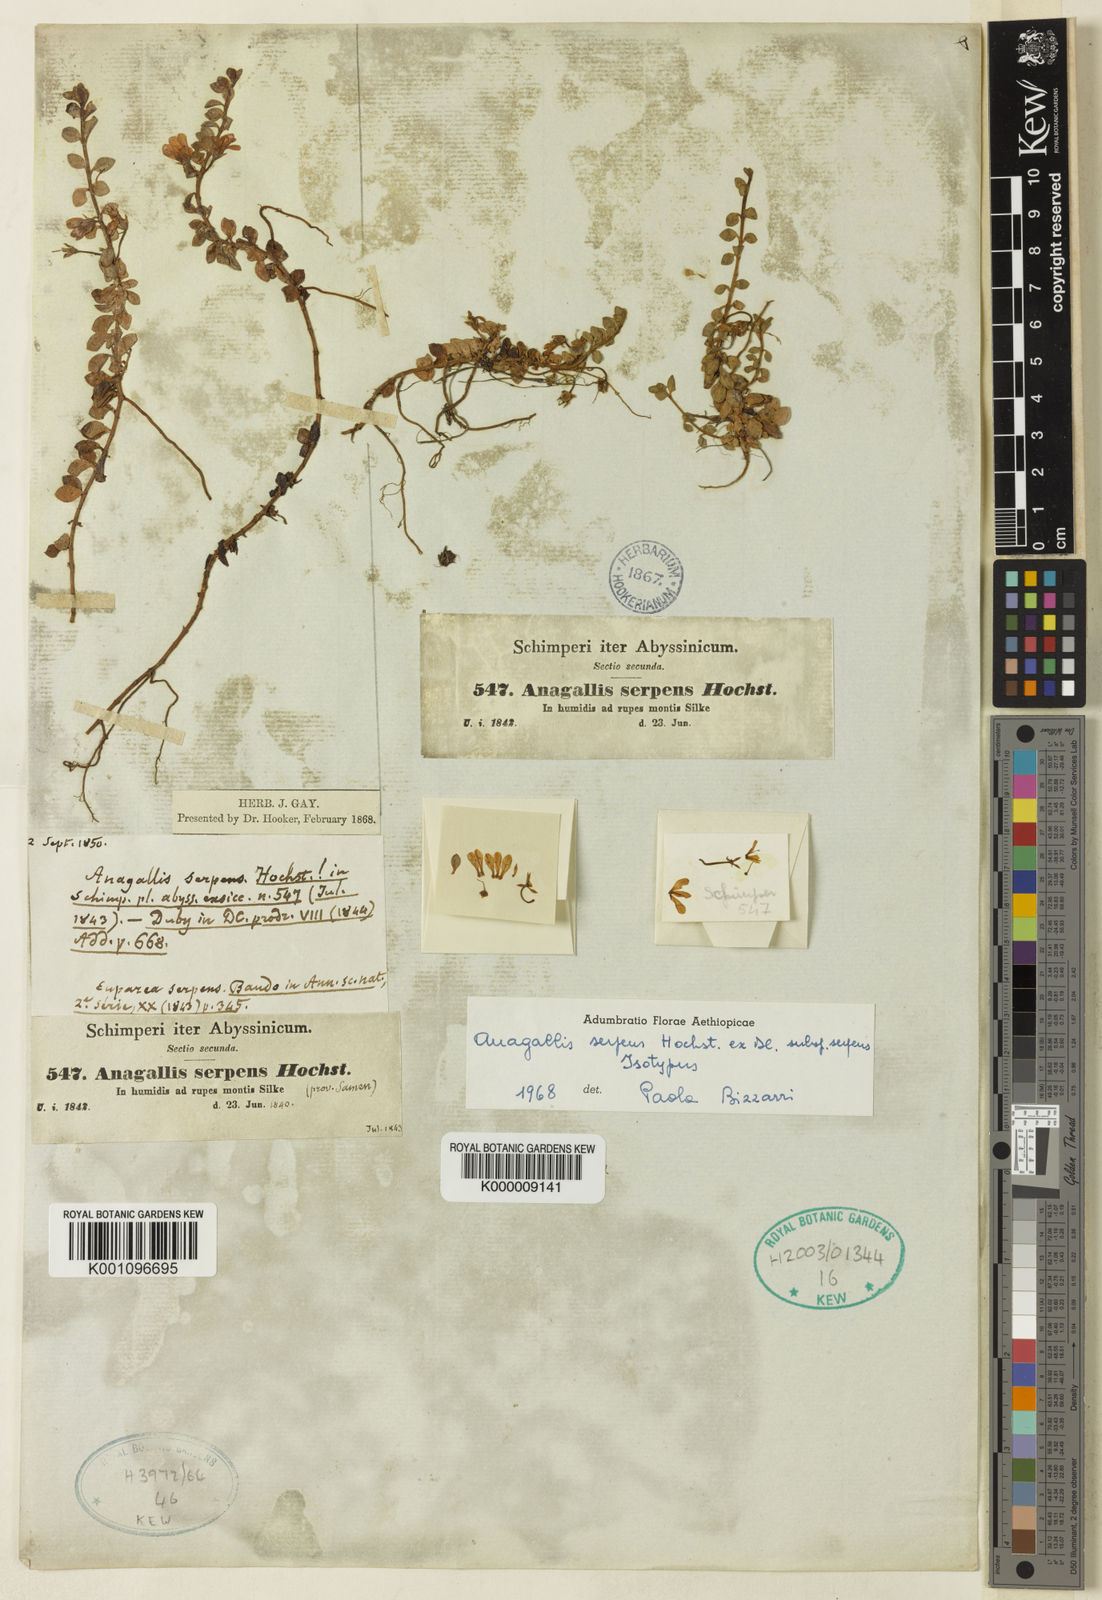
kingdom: Plantae
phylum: Tracheophyta
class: Magnoliopsida
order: Ericales
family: Primulaceae
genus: Lysimachia
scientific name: Lysimachia Anagallis spec
